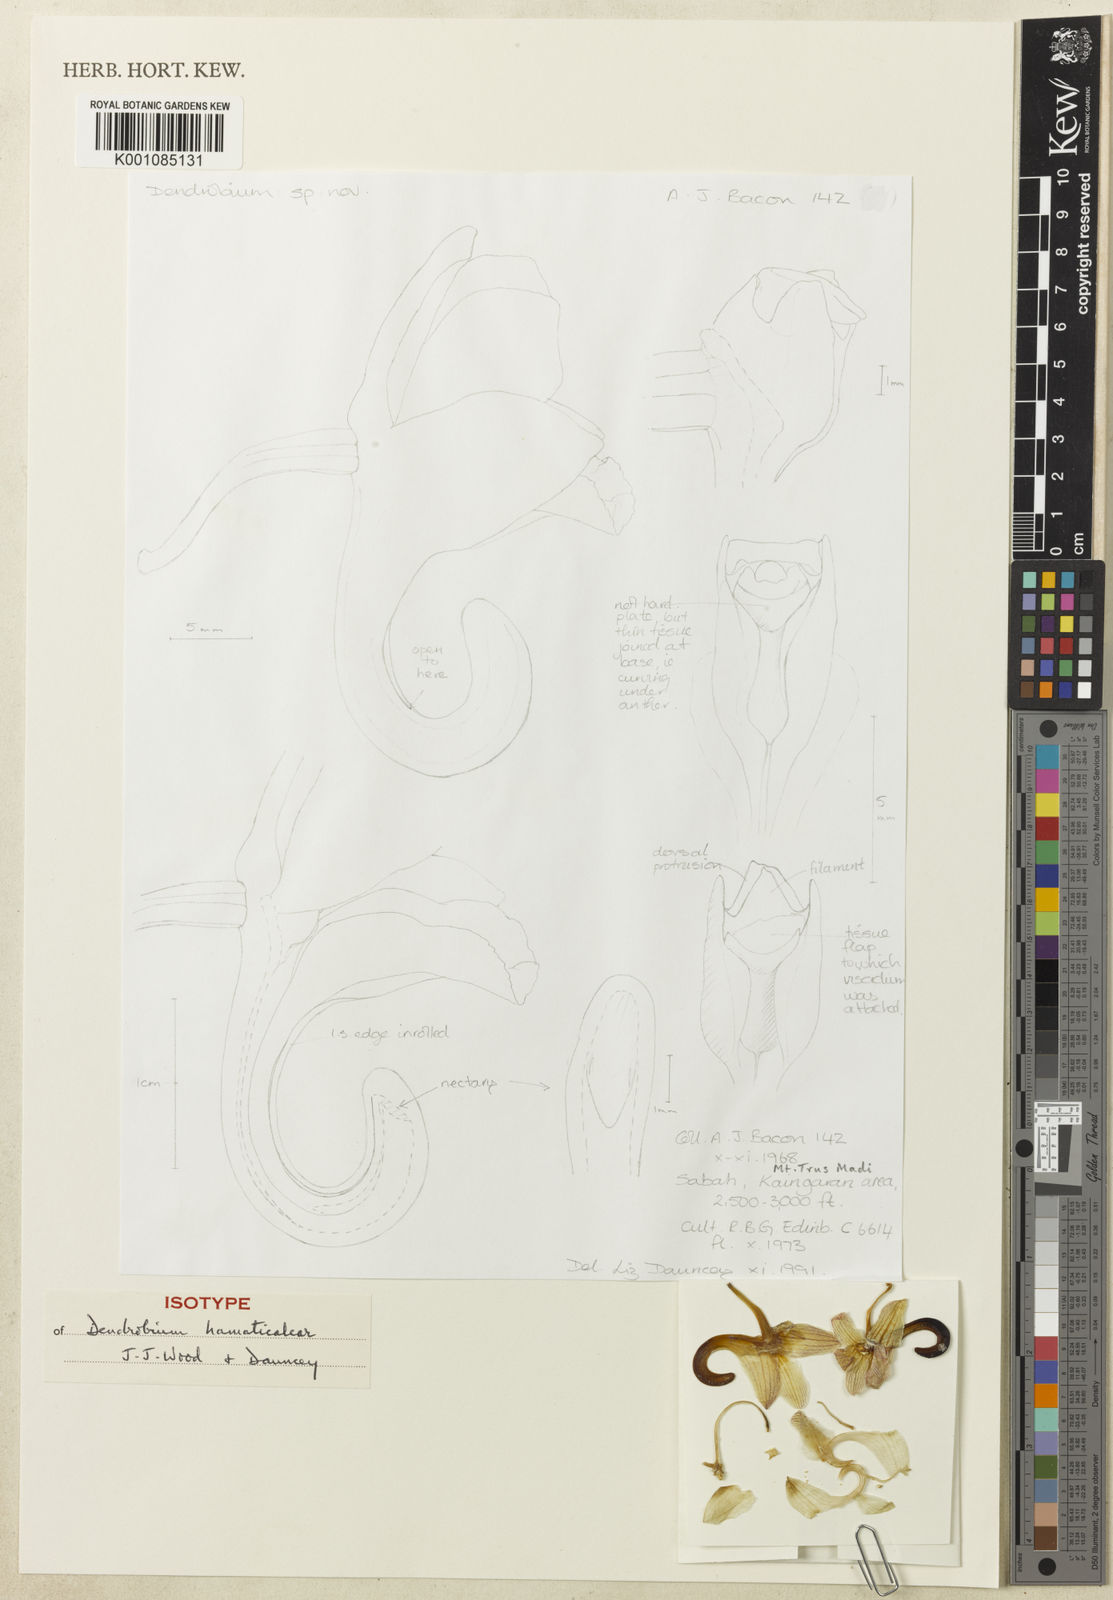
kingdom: Plantae
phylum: Tracheophyta
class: Liliopsida
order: Asparagales
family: Orchidaceae
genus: Dendrobium
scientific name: Dendrobium hamaticalcar
